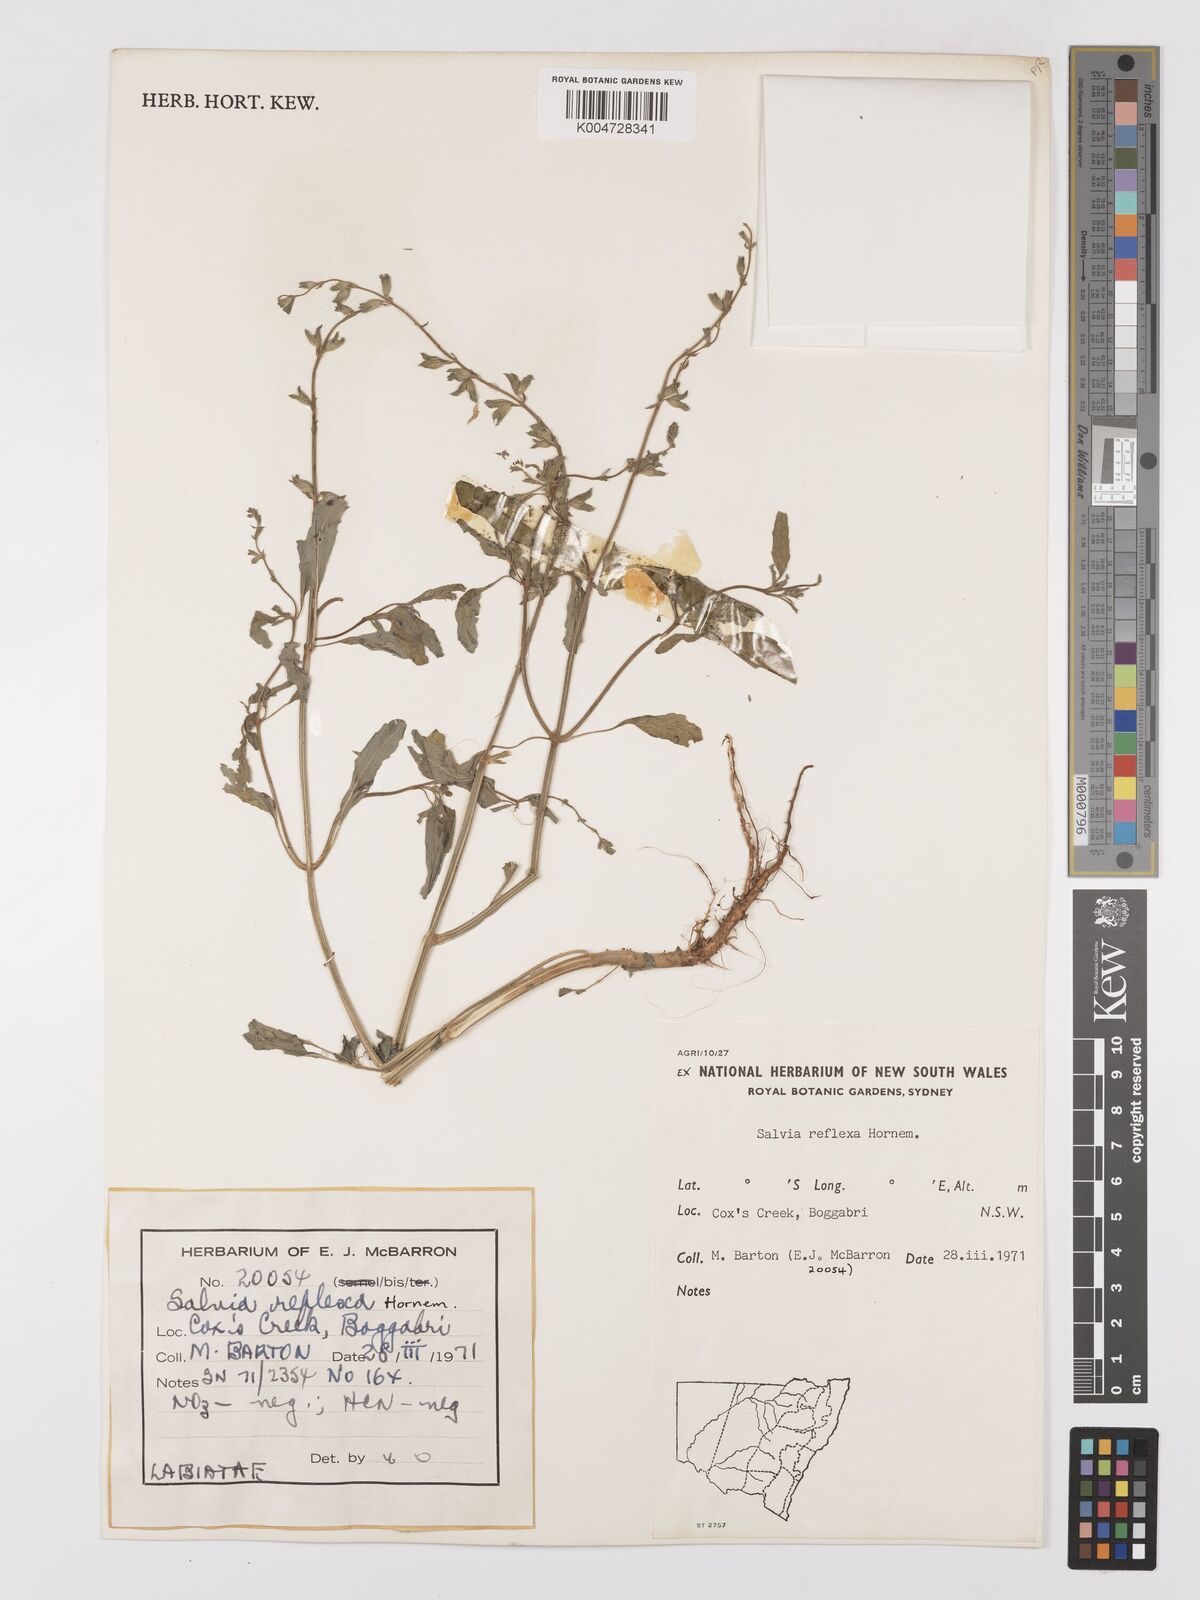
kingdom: Plantae
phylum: Tracheophyta
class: Magnoliopsida
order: Lamiales
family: Lamiaceae
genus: Salvia
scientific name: Salvia reflexa
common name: Mintweed
